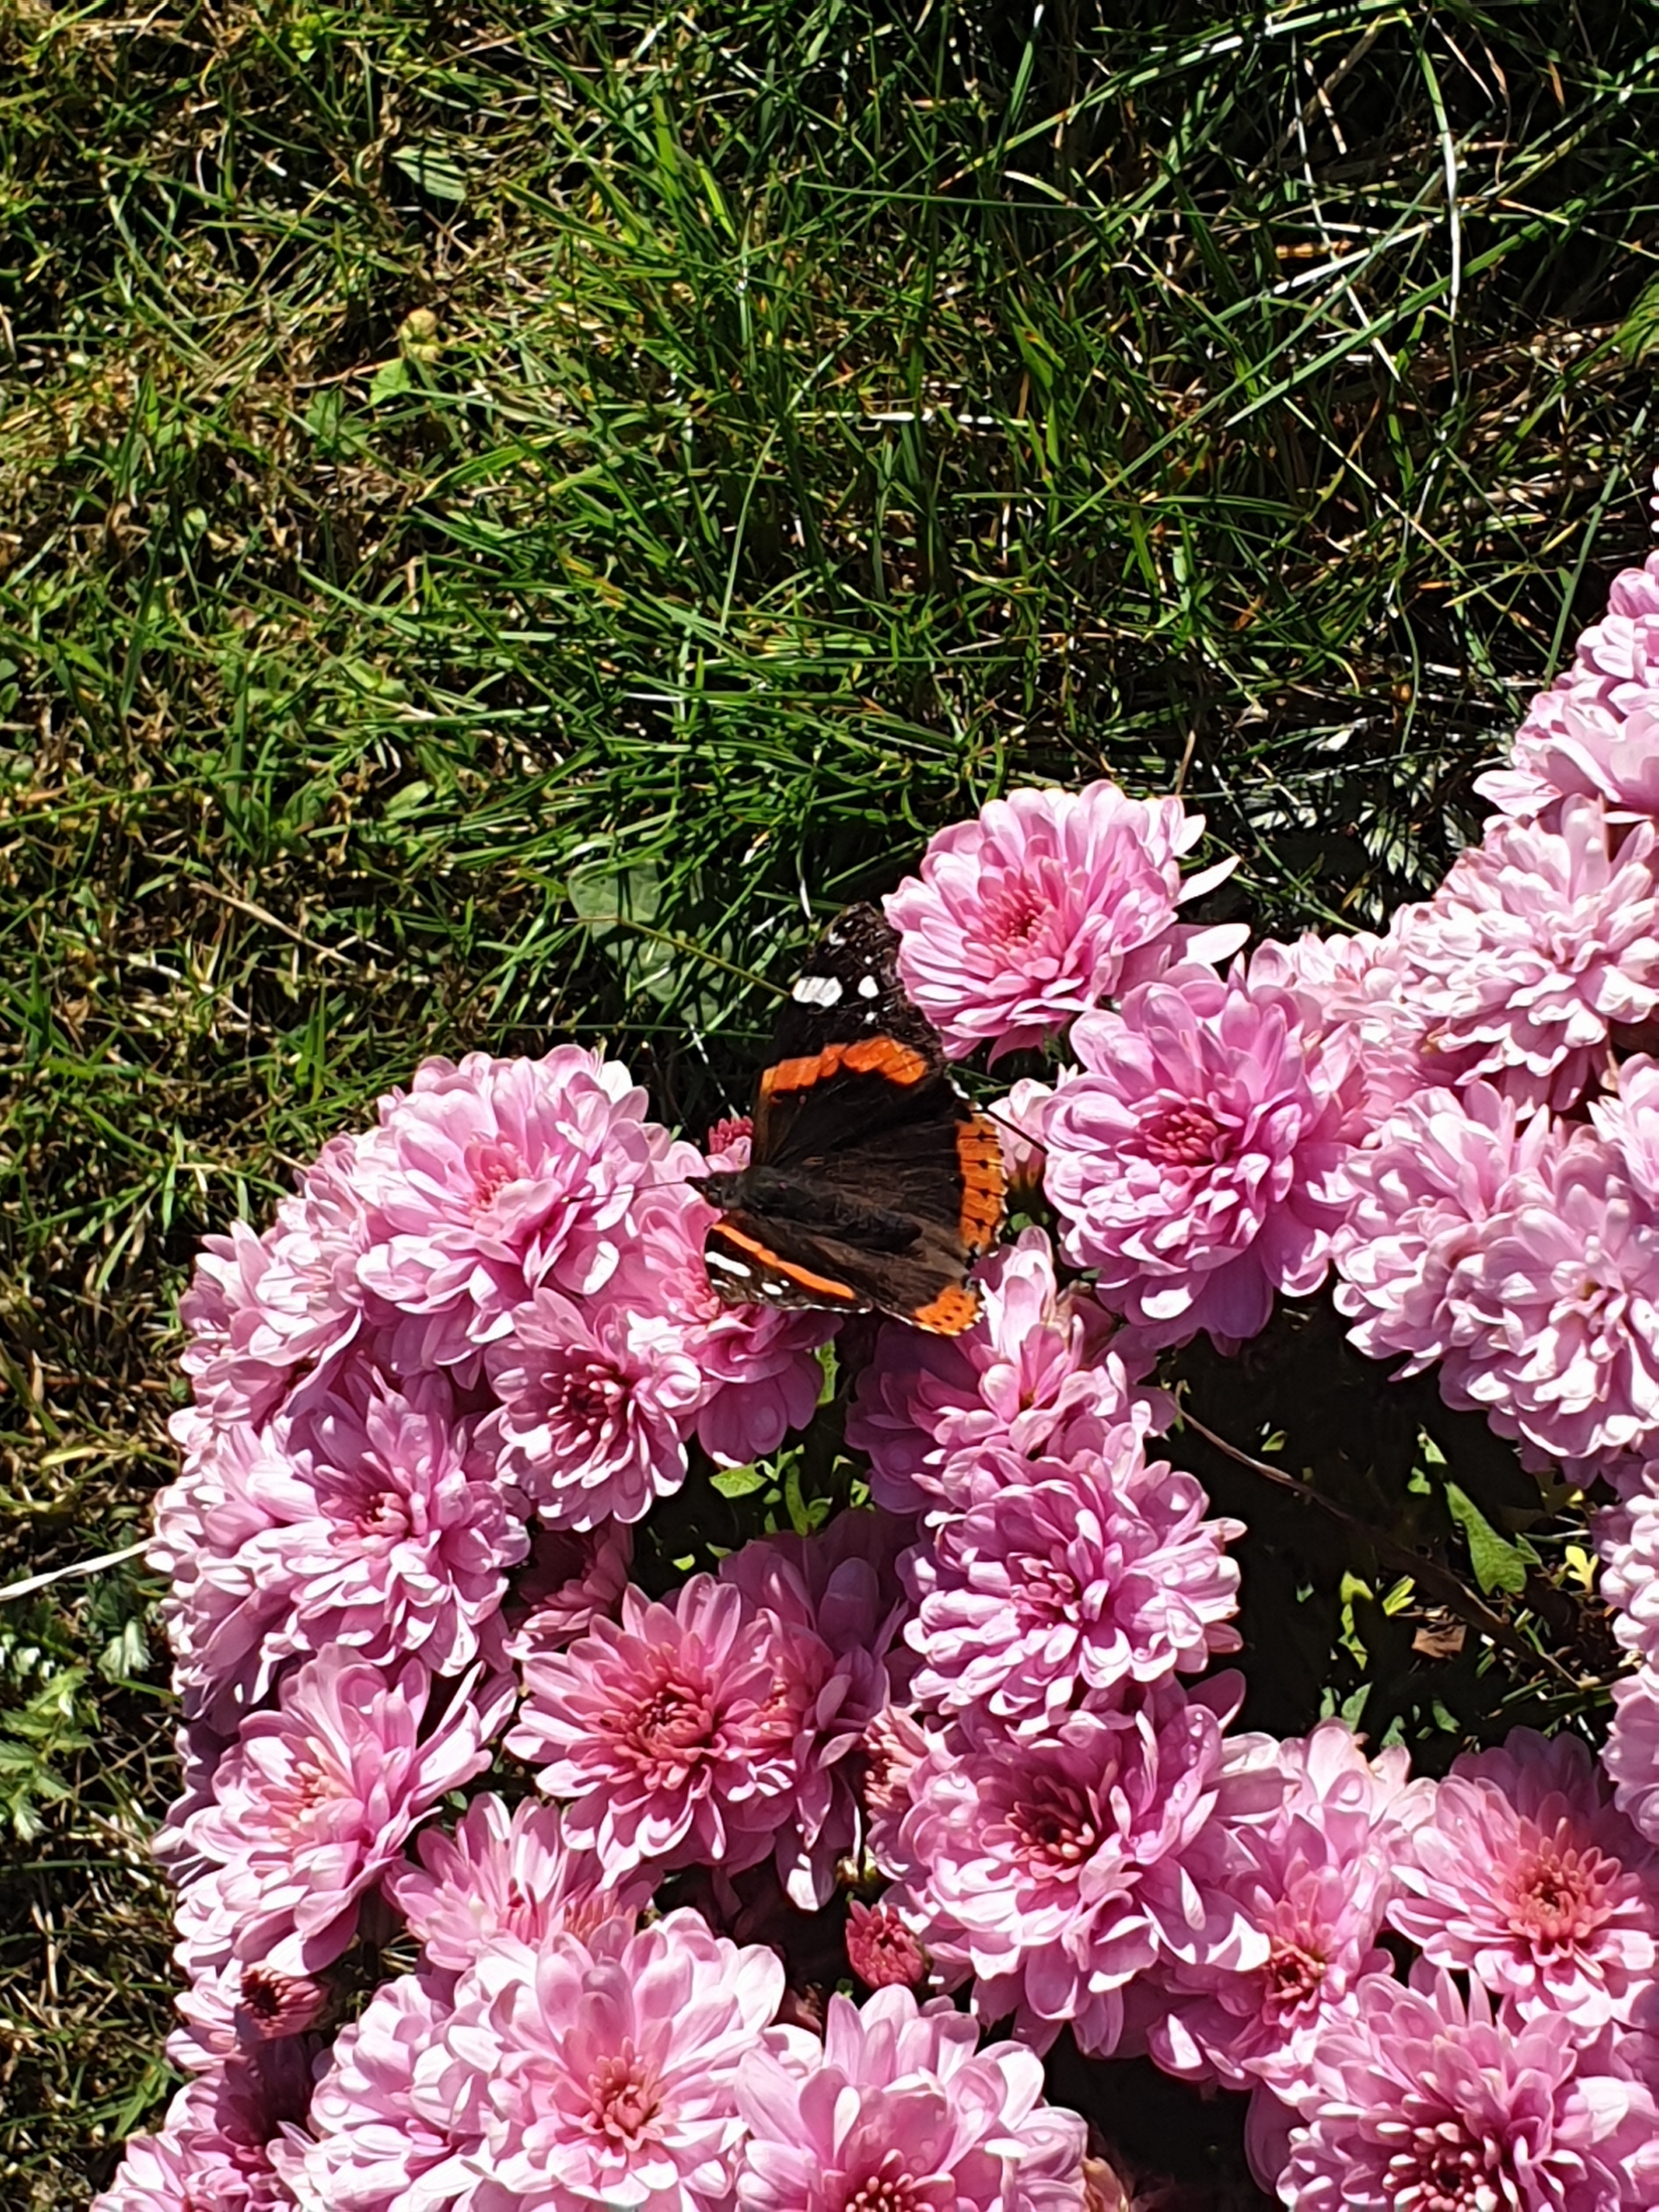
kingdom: Animalia
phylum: Arthropoda
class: Insecta
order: Lepidoptera
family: Nymphalidae
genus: Vanessa
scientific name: Vanessa atalanta
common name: Admiral
